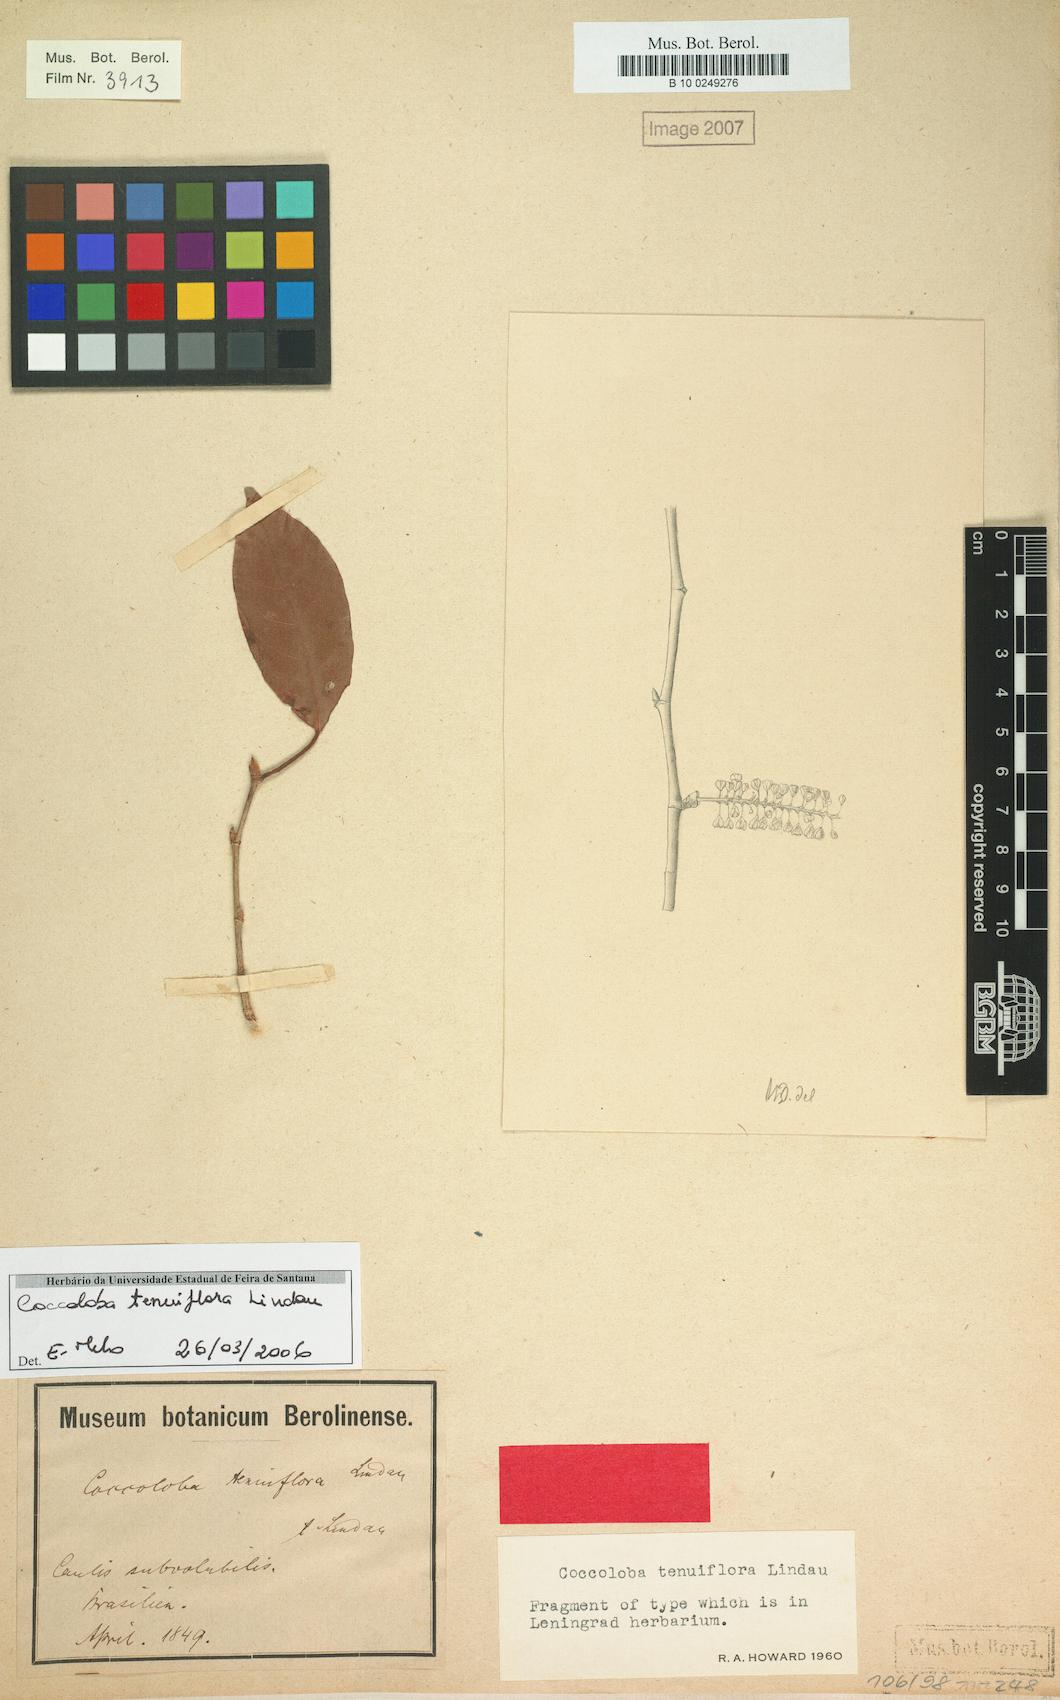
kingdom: Plantae
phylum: Tracheophyta
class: Magnoliopsida
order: Caryophyllales
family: Polygonaceae
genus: Coccoloba
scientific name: Coccoloba tenuiflora
